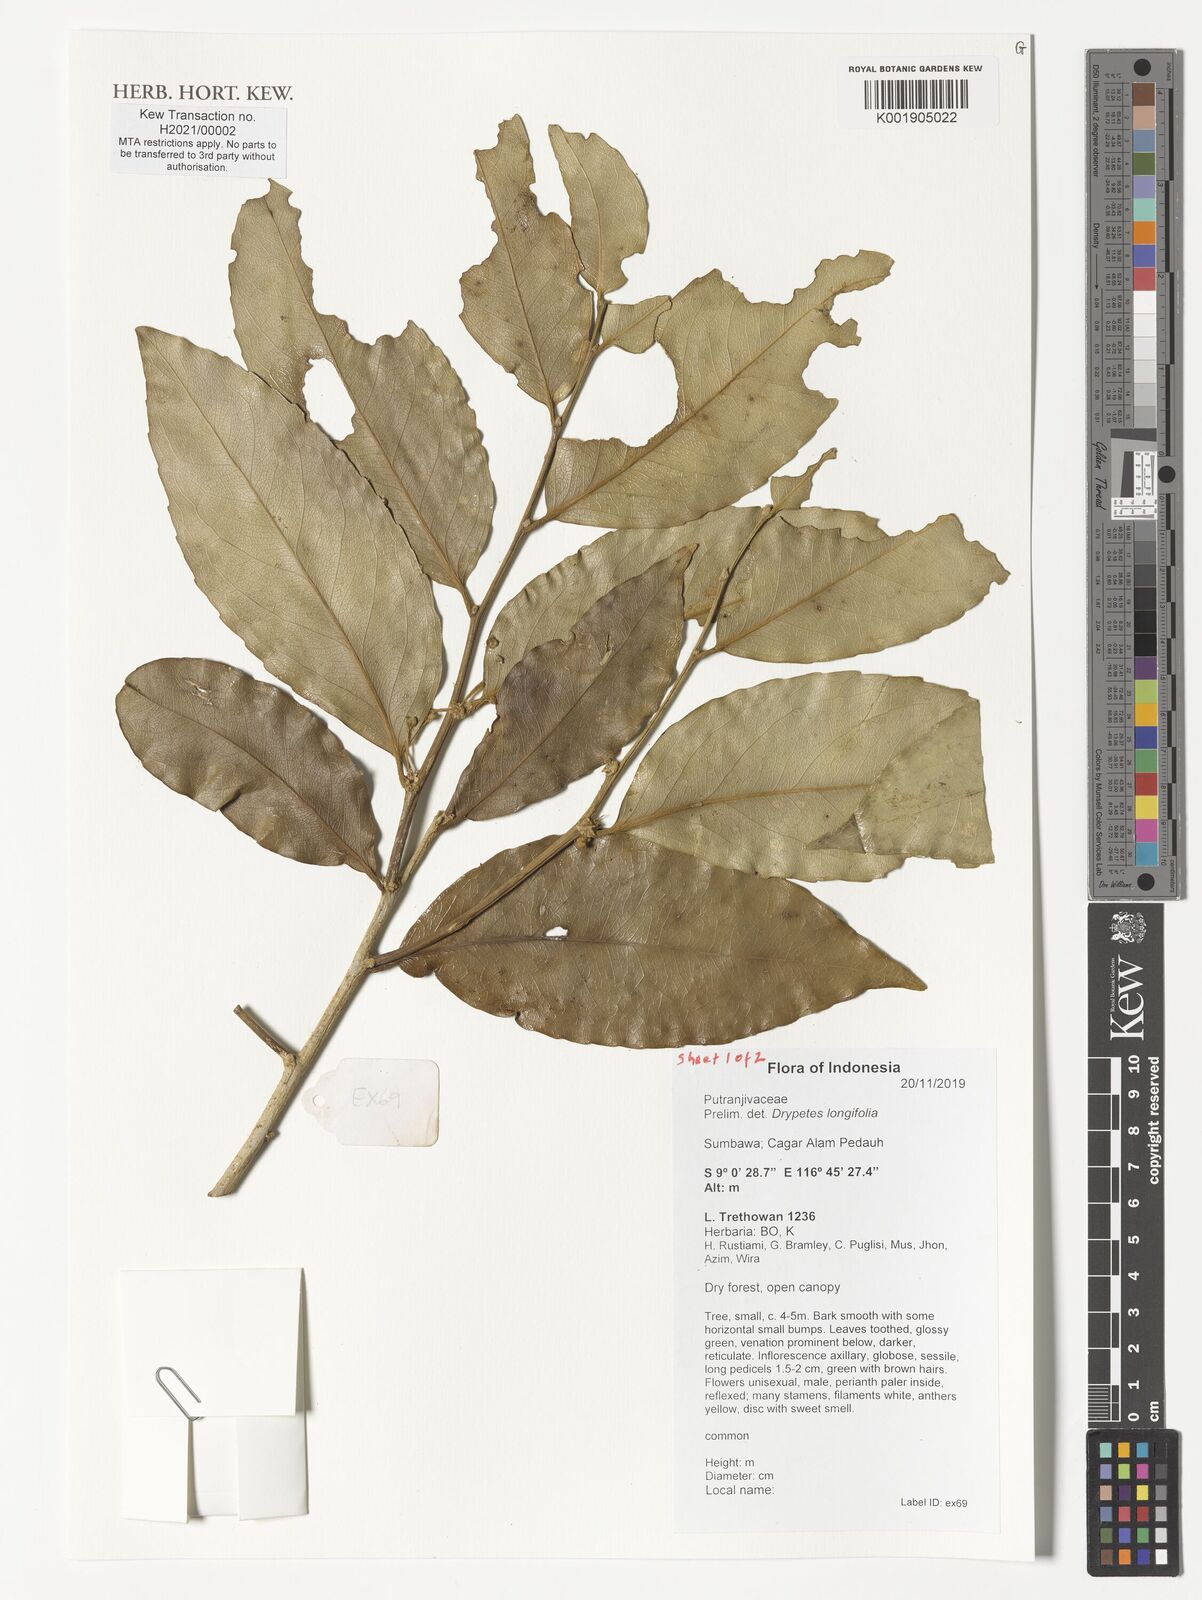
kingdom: Plantae
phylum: Tracheophyta
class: Magnoliopsida
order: Malpighiales
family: Putranjivaceae
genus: Drypetes
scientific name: Drypetes longifolia
